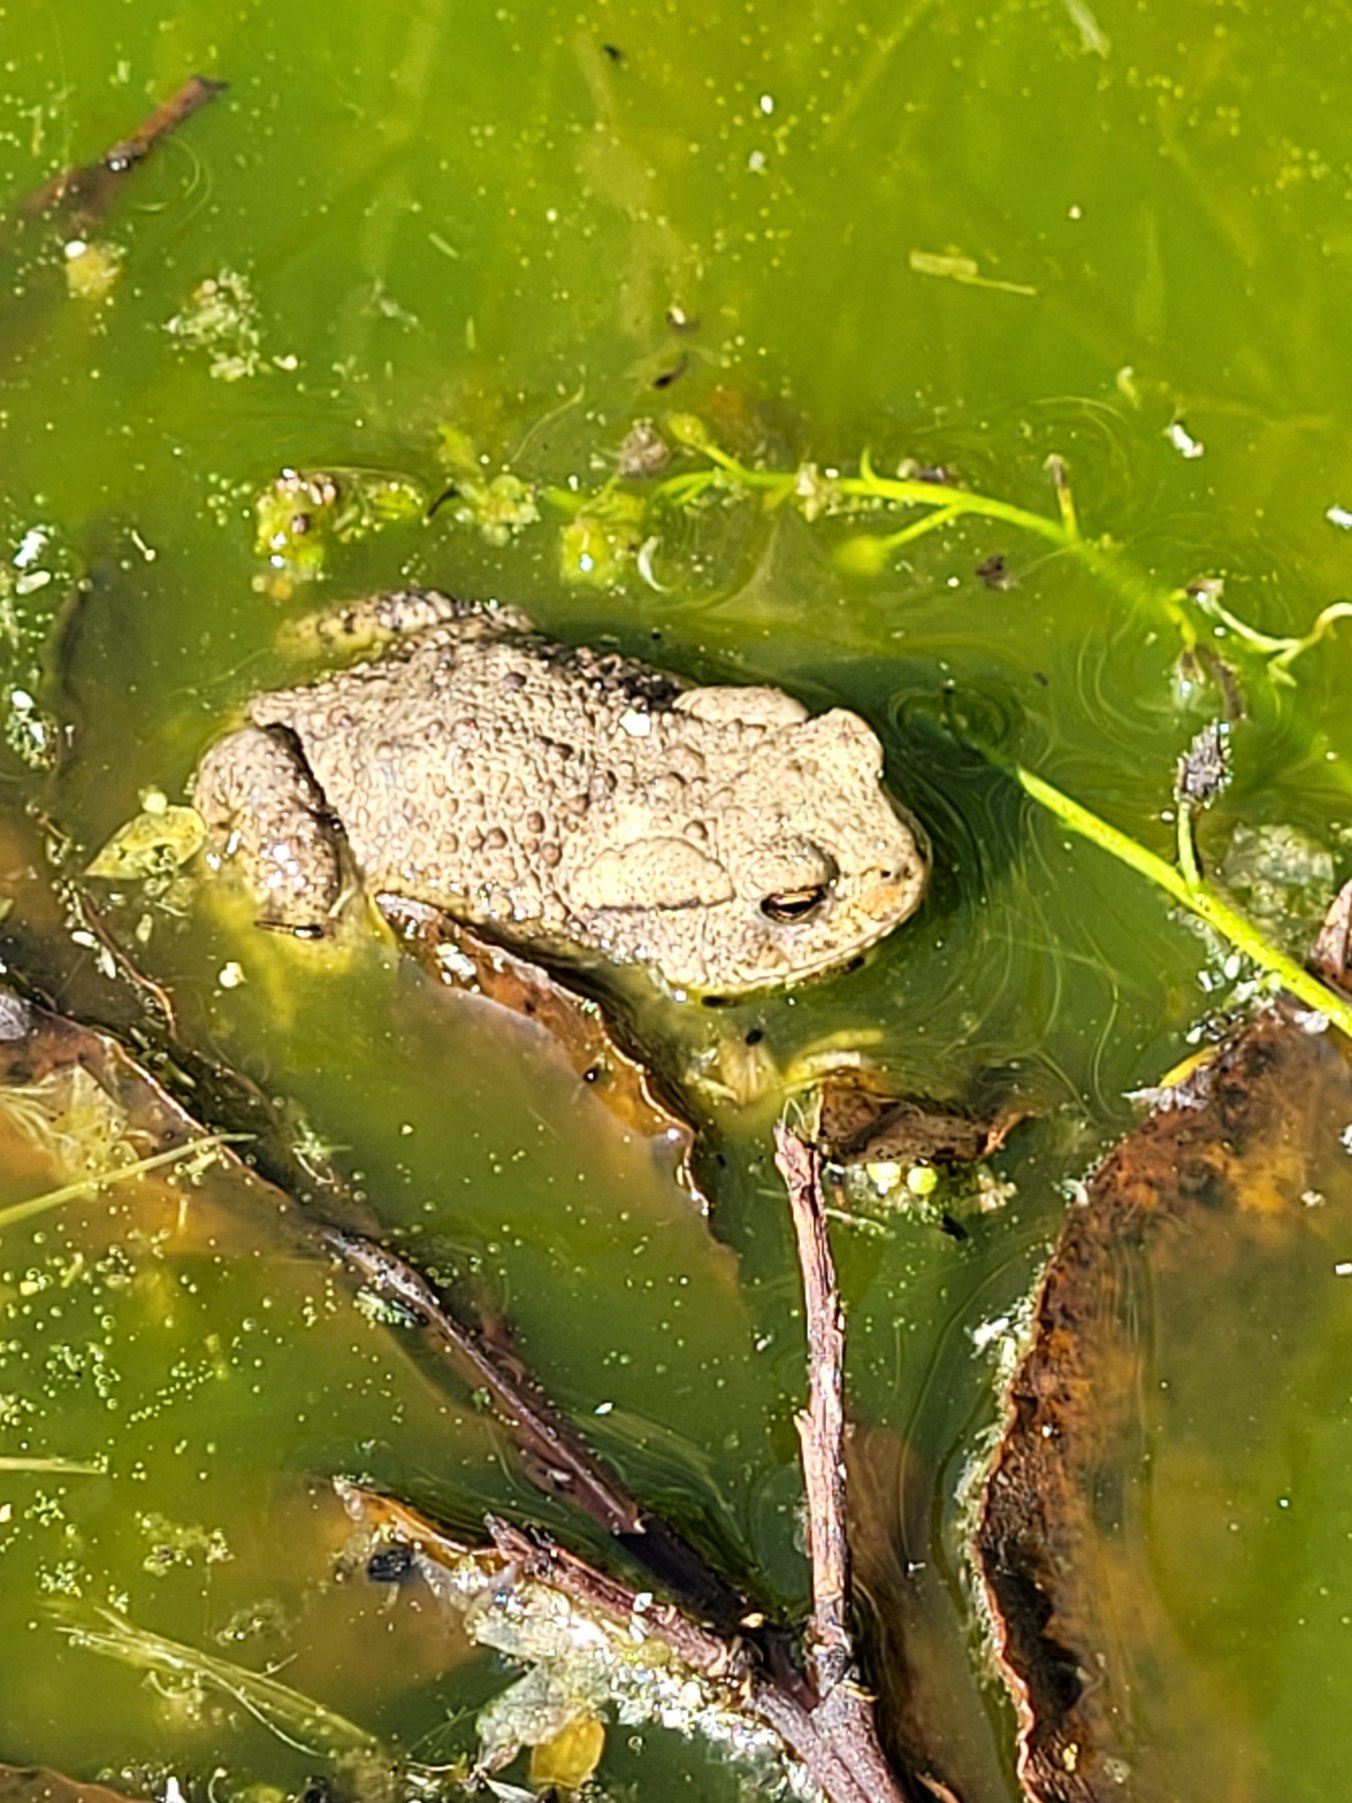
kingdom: Animalia
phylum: Chordata
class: Amphibia
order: Anura
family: Bufonidae
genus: Bufo
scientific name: Bufo bufo
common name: Skrubtudse
